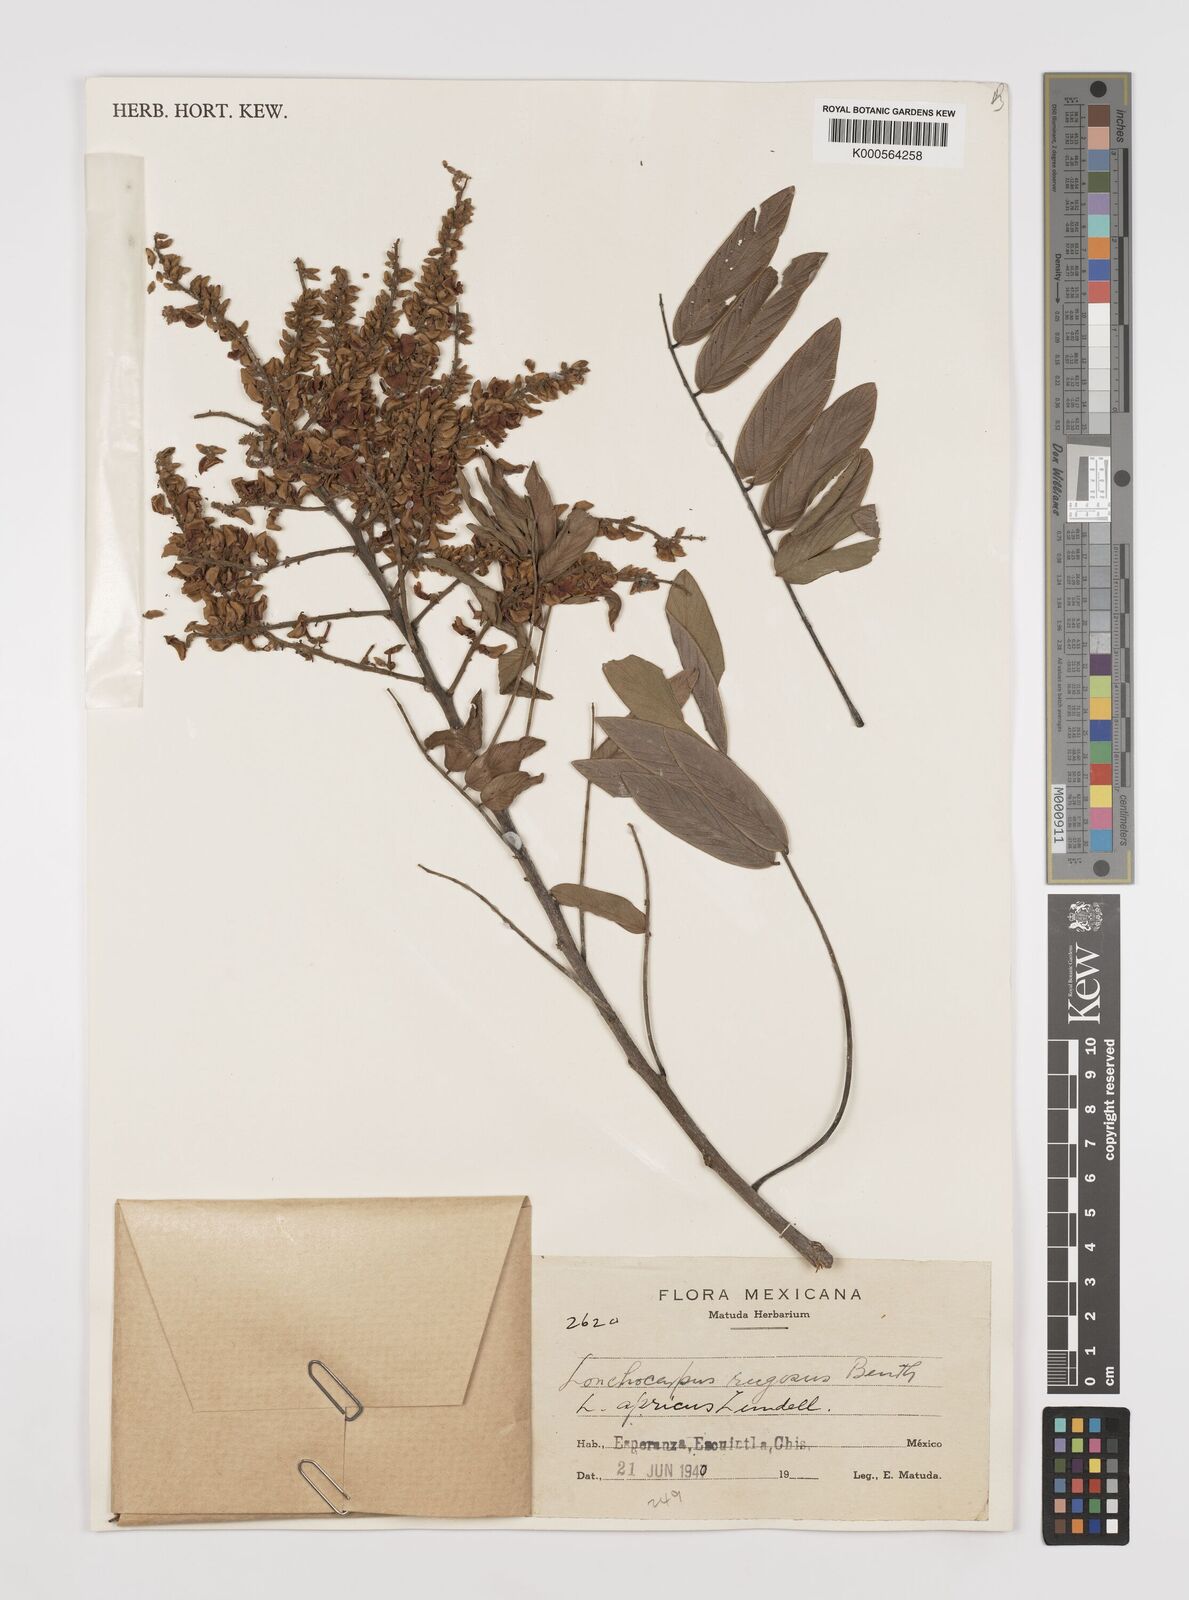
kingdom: Plantae
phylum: Tracheophyta
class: Magnoliopsida
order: Fabales
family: Fabaceae
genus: Lonchocarpus
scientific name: Lonchocarpus rugosus
